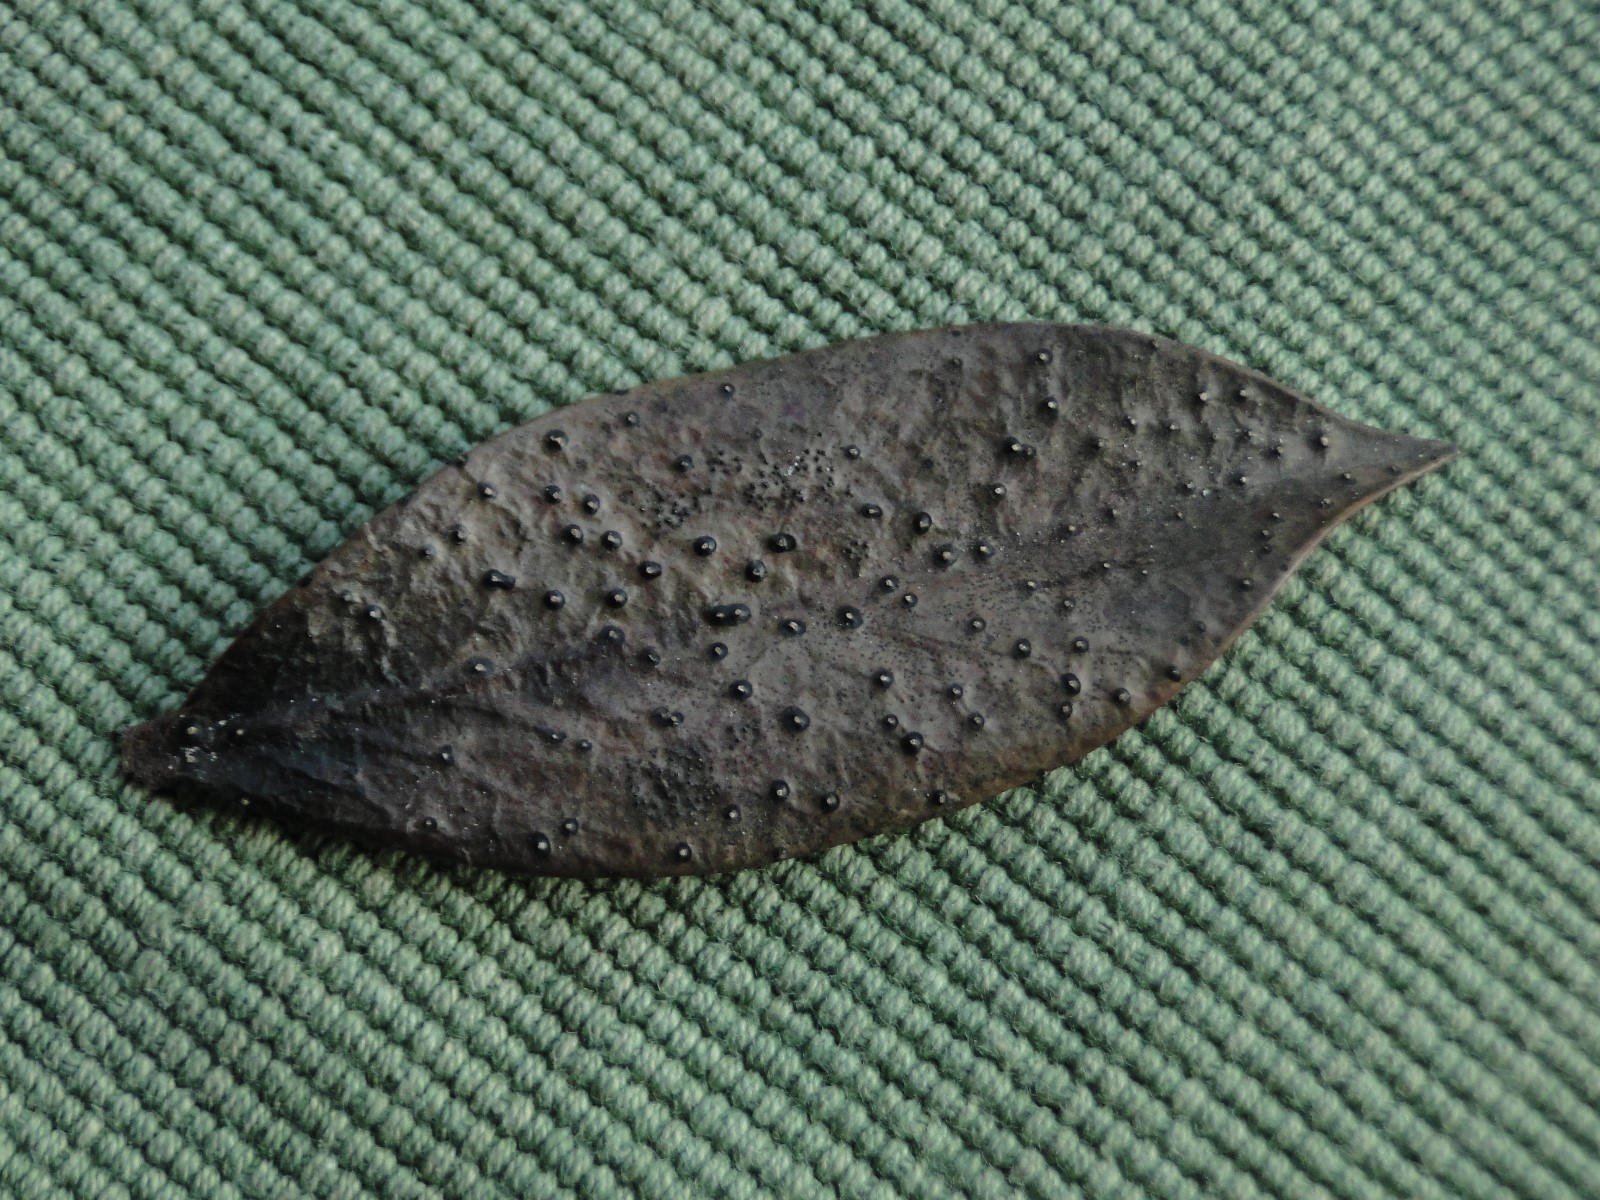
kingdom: Fungi
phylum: Ascomycota
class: Leotiomycetes
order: Phacidiales
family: Phacidiaceae
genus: Phacidium
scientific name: Phacidium lauri
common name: kristtorn-tandskive
